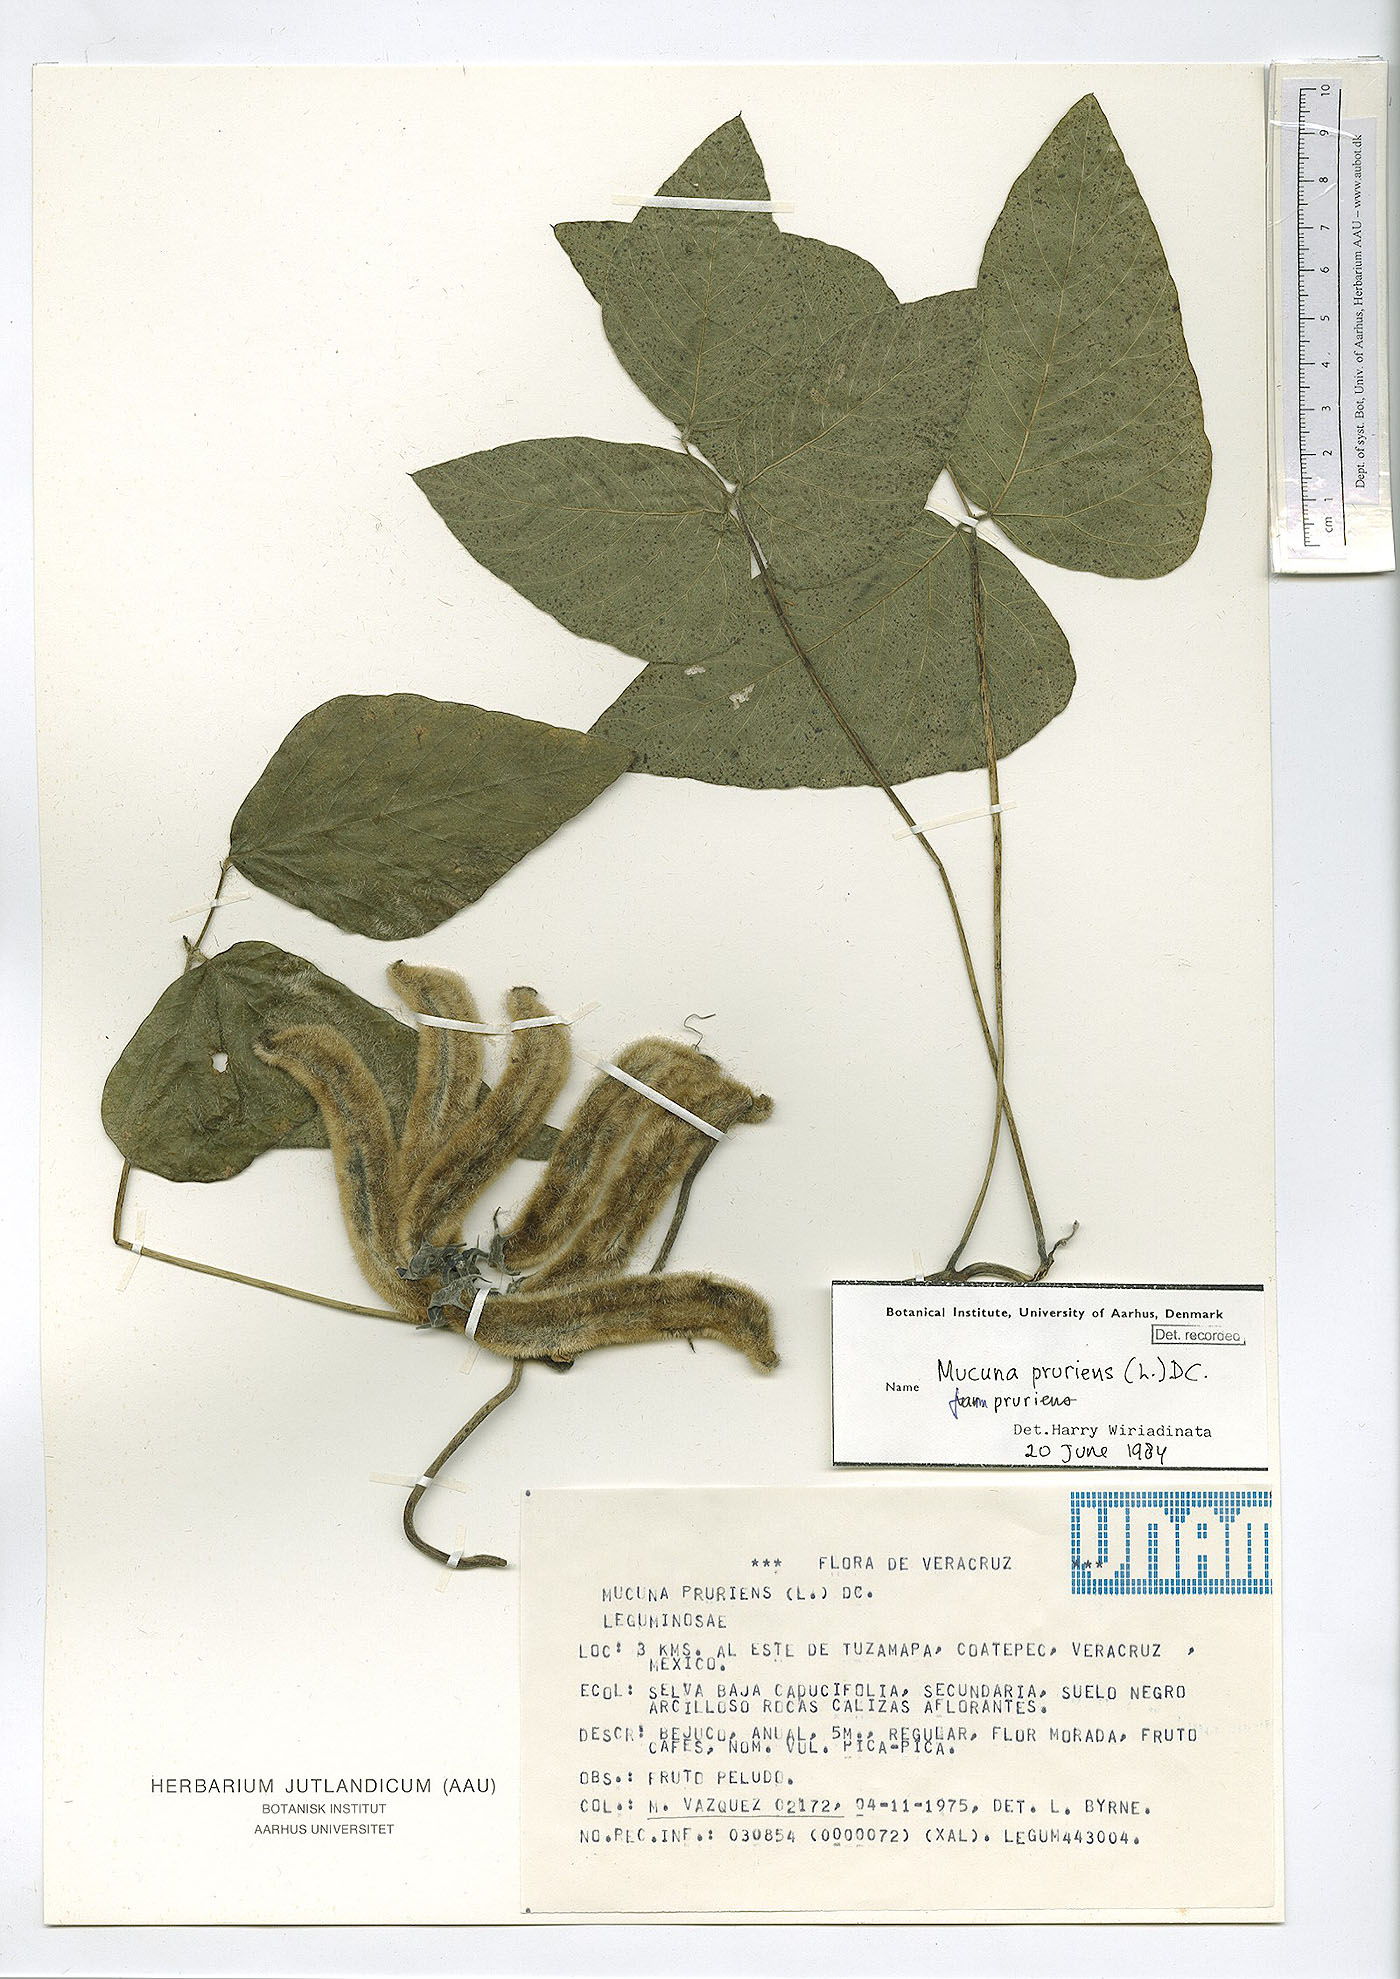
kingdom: Plantae
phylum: Tracheophyta
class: Magnoliopsida
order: Fabales
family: Fabaceae
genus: Mucuna
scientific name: Mucuna pruriens
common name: Cow-itch
